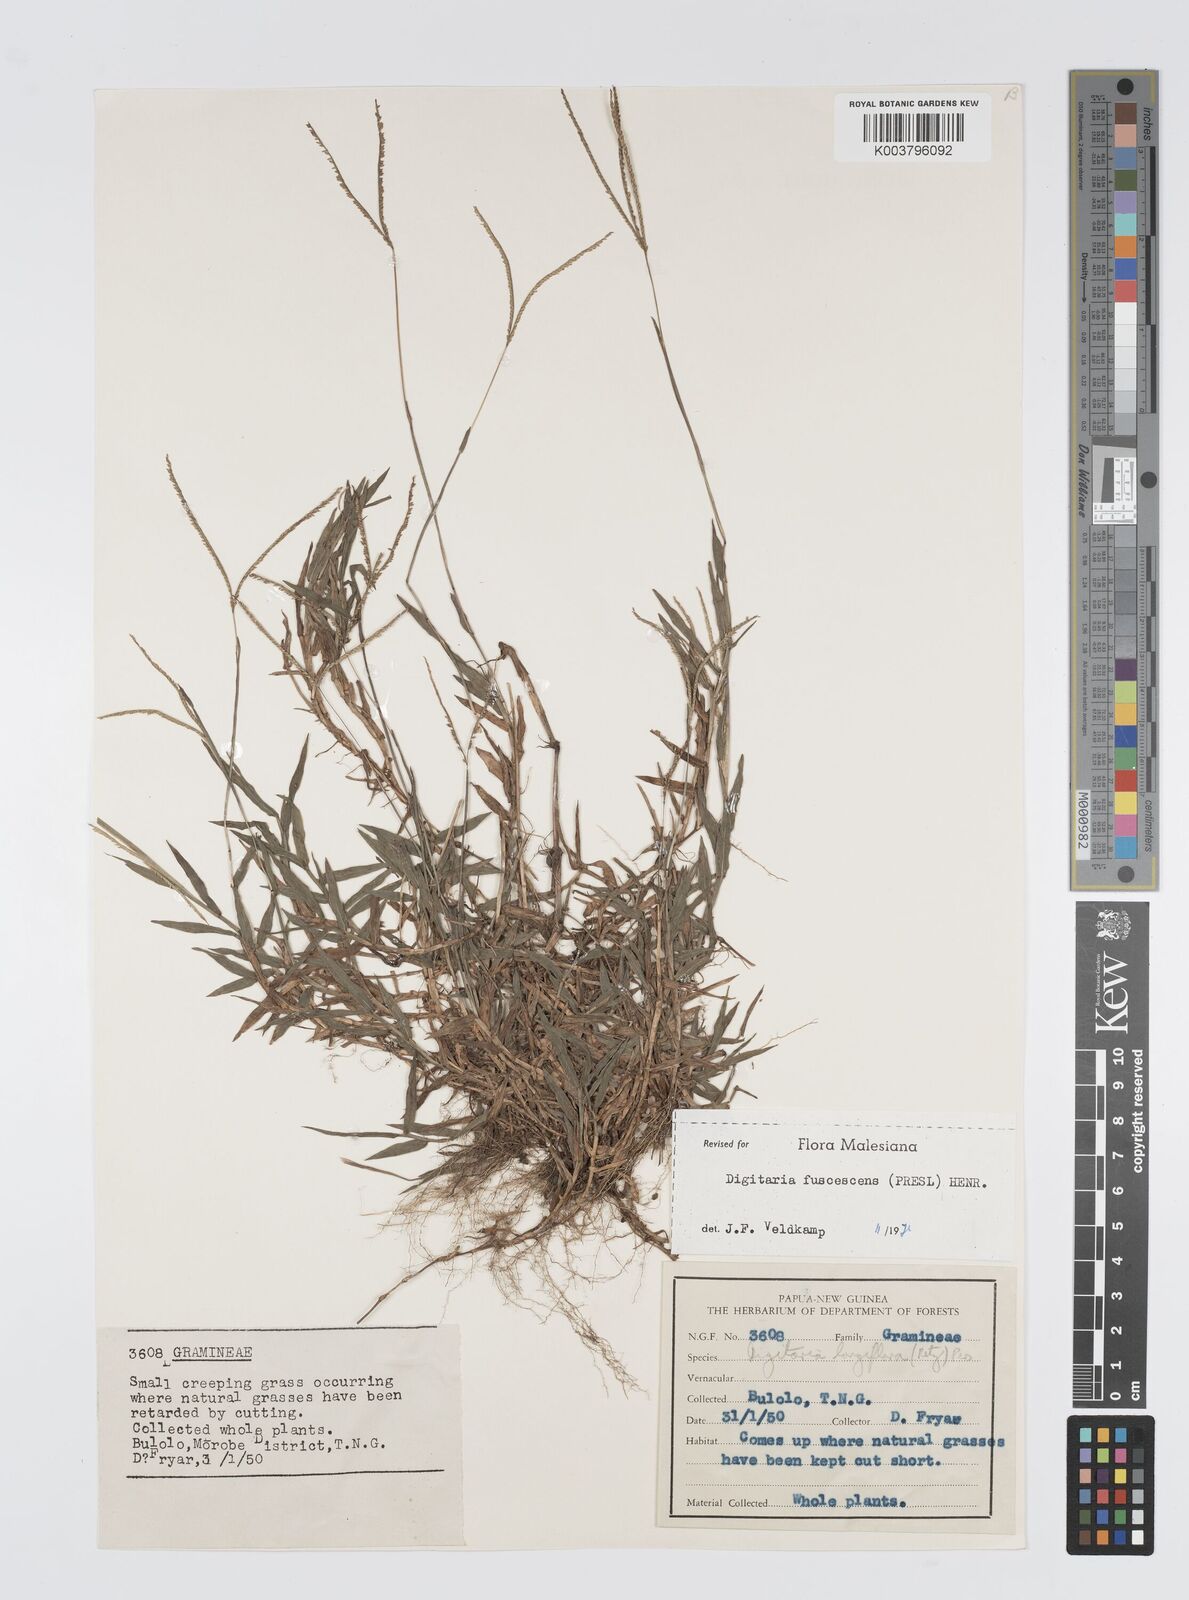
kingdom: Plantae
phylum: Tracheophyta
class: Liliopsida
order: Poales
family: Poaceae
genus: Digitaria
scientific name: Digitaria fuscescens
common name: Yellow crabgrass
